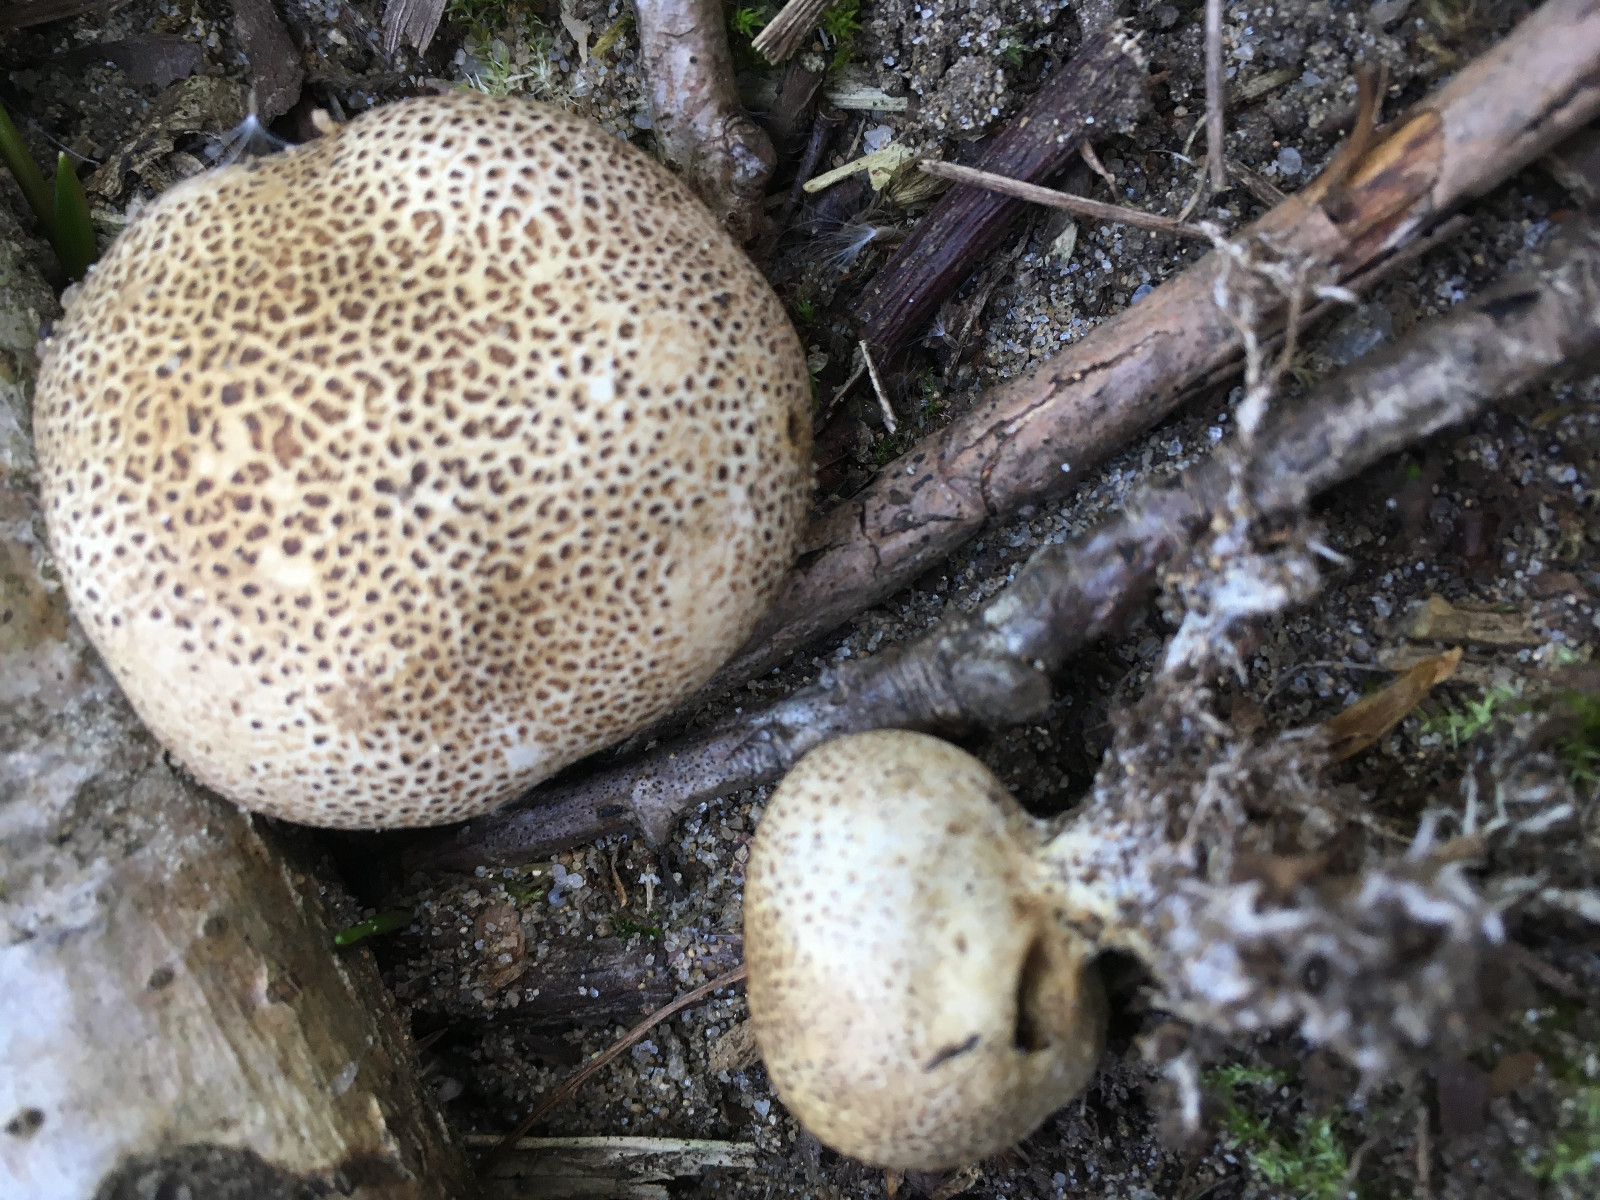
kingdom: Fungi
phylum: Basidiomycota
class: Agaricomycetes
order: Boletales
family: Sclerodermataceae
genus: Scleroderma
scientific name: Scleroderma areolatum
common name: plettet bruskbold
